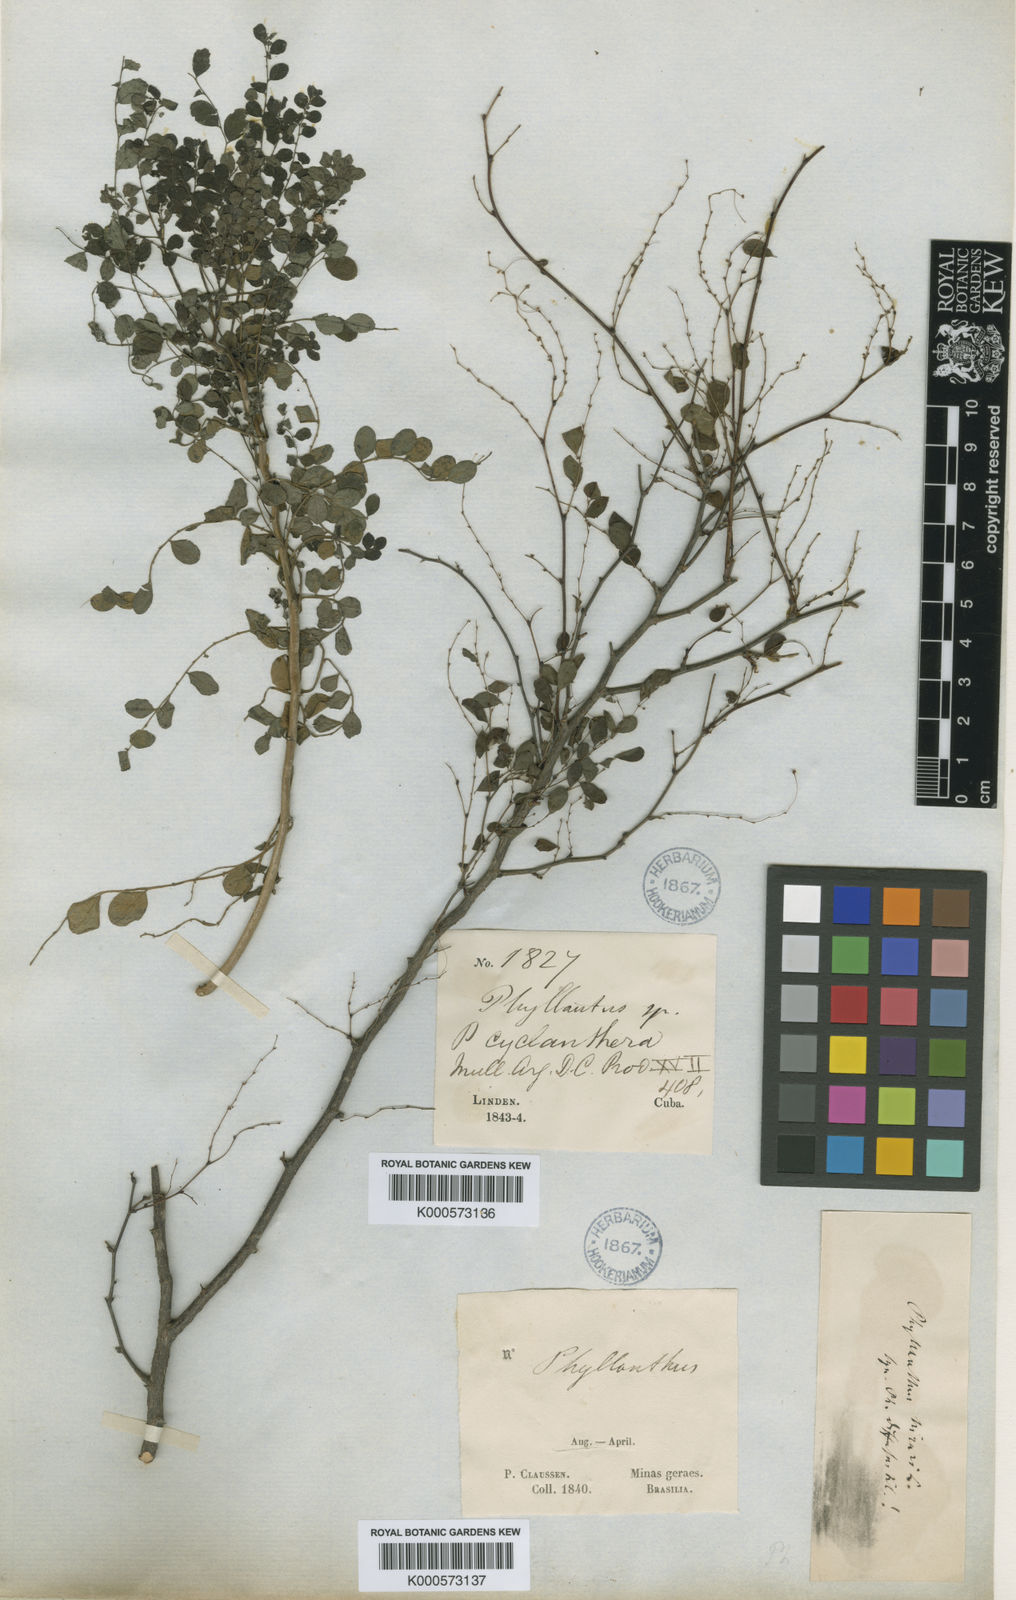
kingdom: Plantae
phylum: Tracheophyta
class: Magnoliopsida
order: Malpighiales
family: Phyllanthaceae
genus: Phyllanthus
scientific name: Phyllanthus
